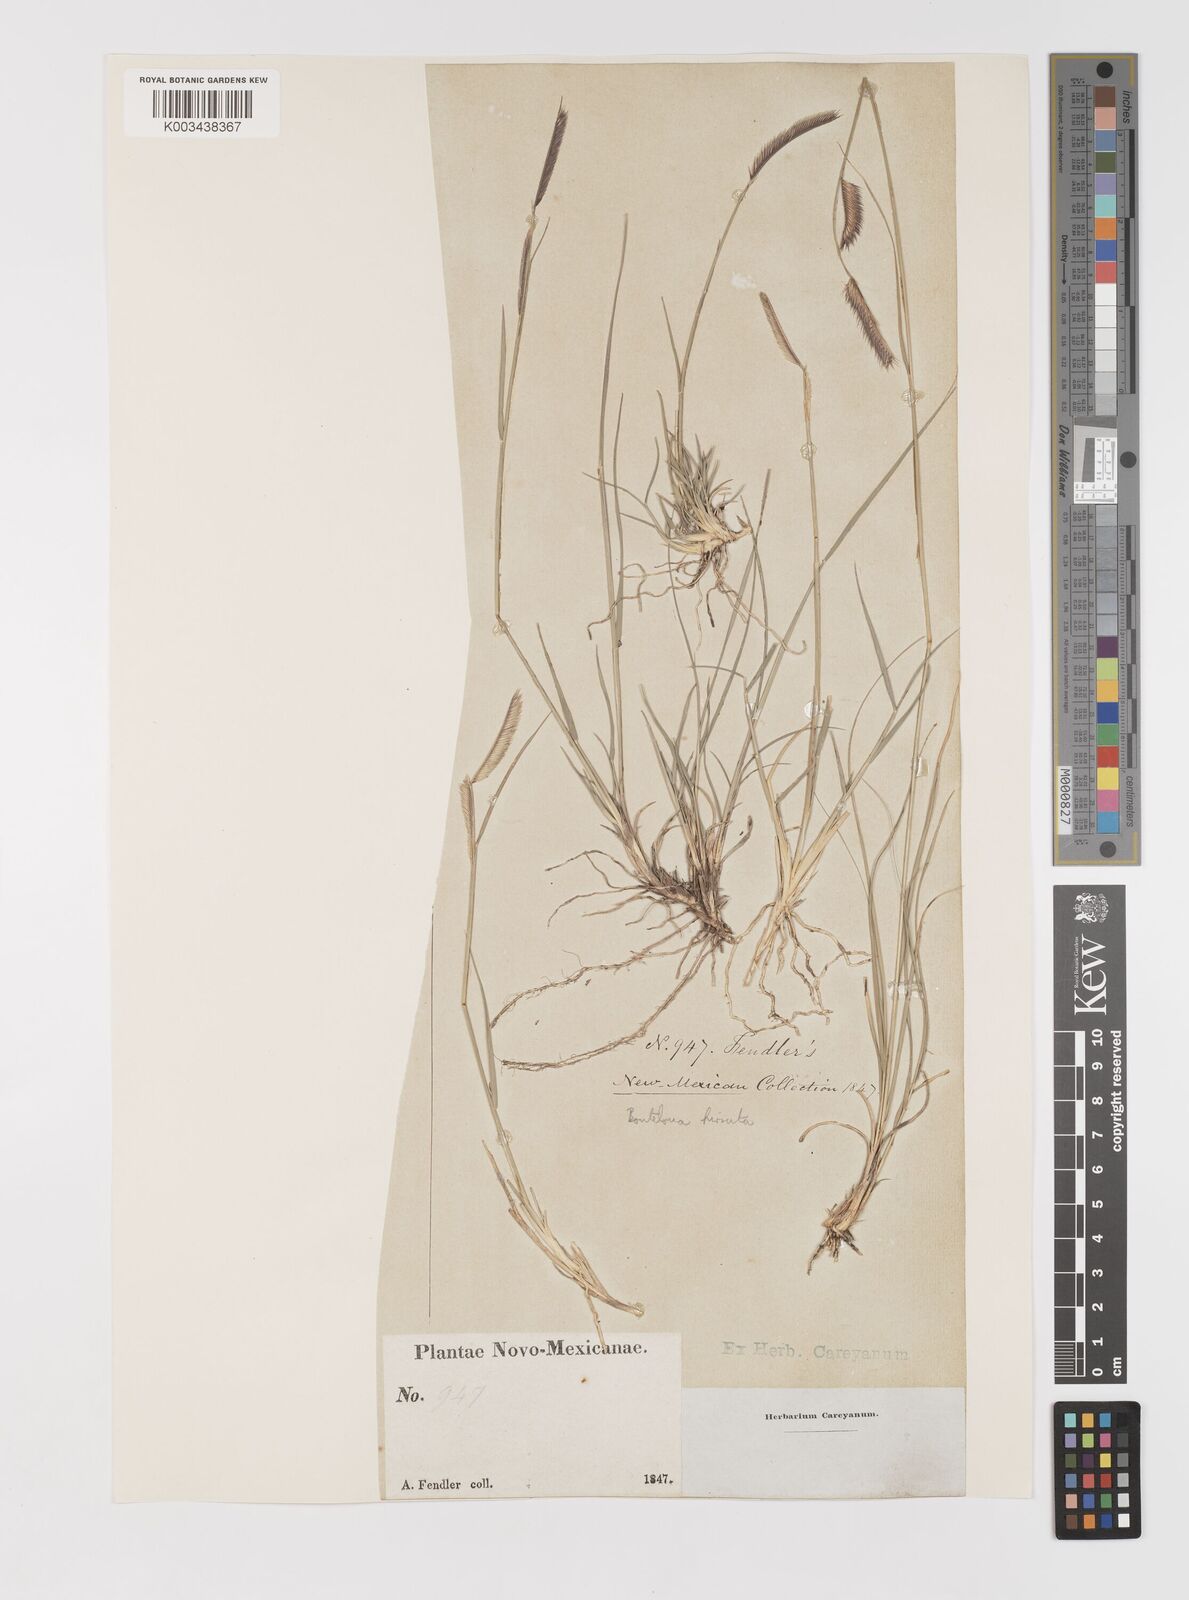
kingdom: Plantae
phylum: Tracheophyta
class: Liliopsida
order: Poales
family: Poaceae
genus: Bouteloua
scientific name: Bouteloua hirsuta
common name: Hairy grama
